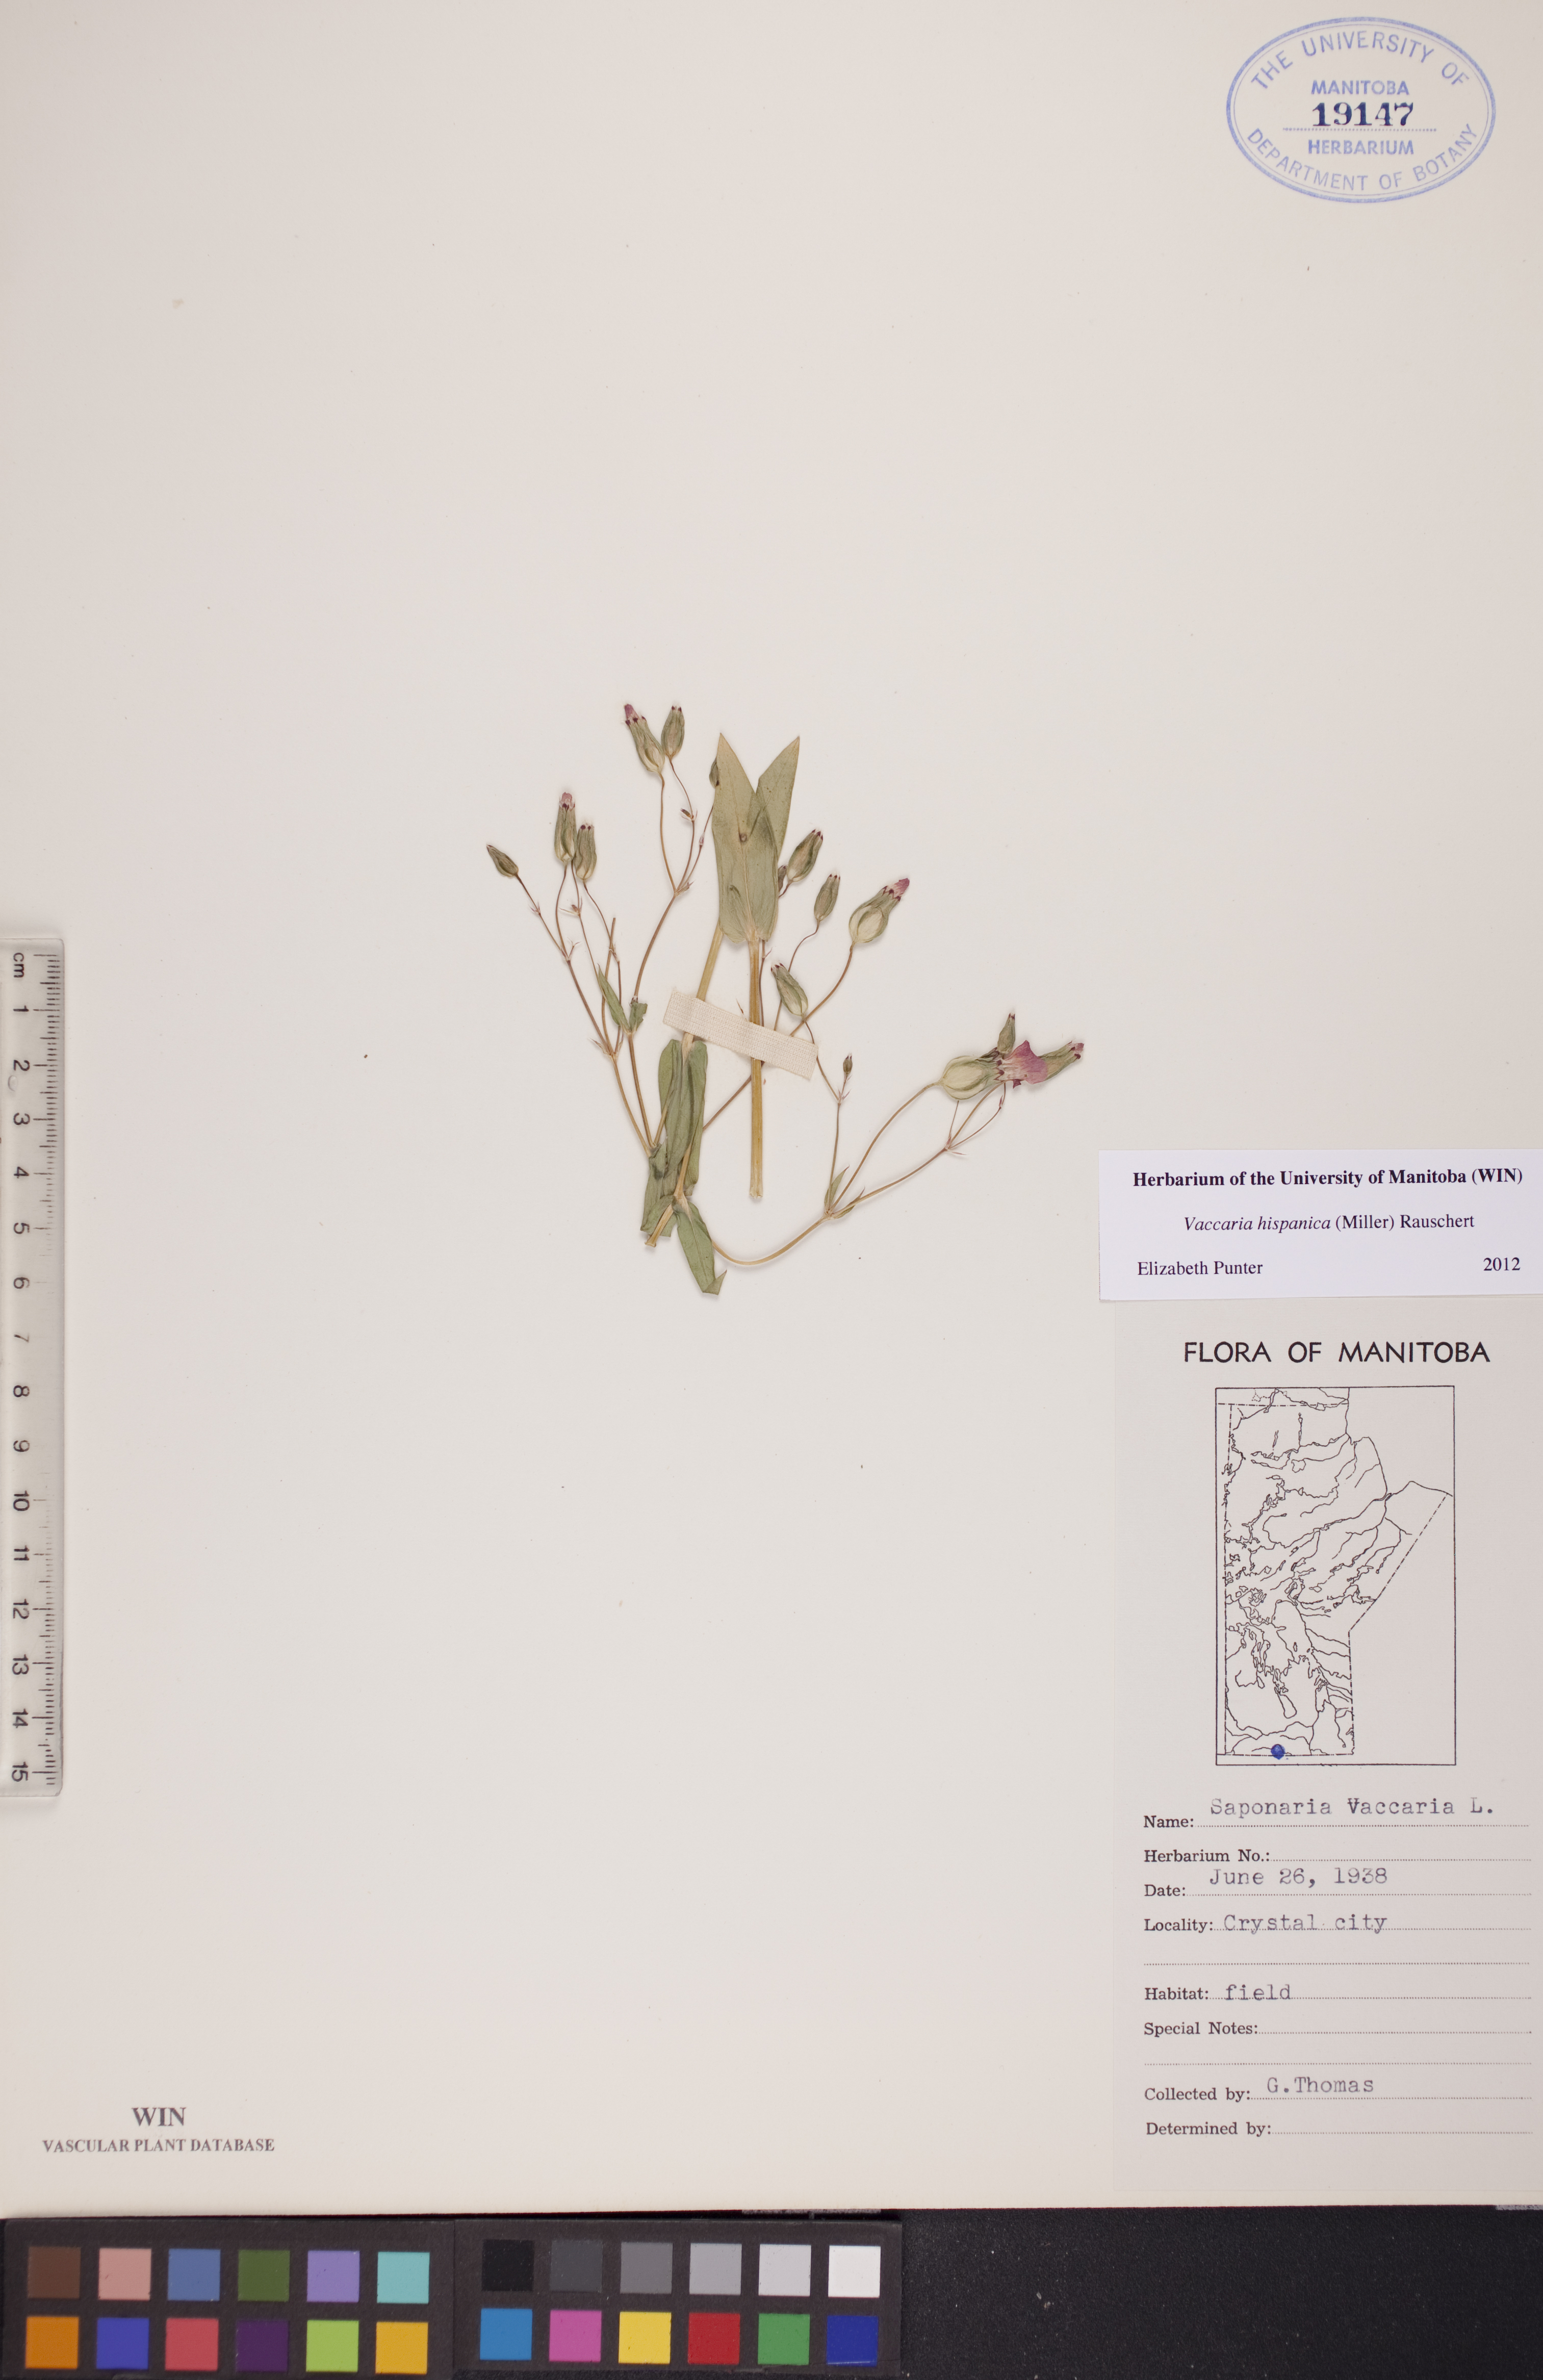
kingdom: Plantae
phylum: Tracheophyta
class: Magnoliopsida
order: Caryophyllales
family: Caryophyllaceae
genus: Gypsophila
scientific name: Gypsophila vaccaria
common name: Cow soapwort
